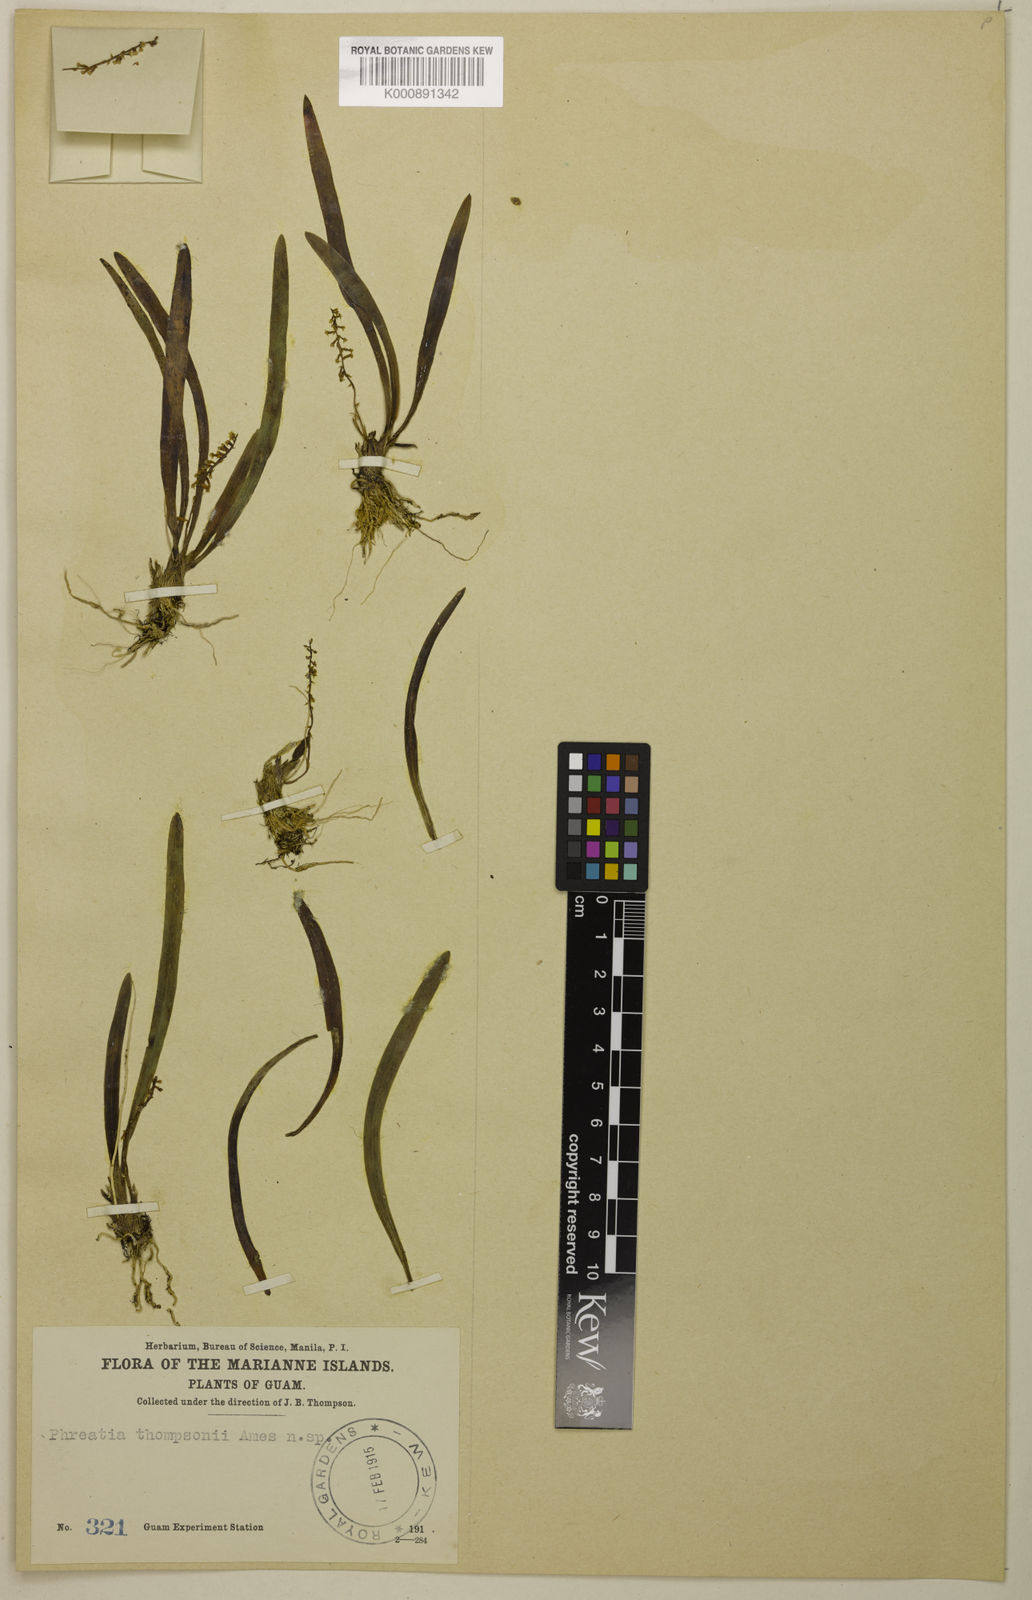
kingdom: Plantae
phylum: Tracheophyta
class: Liliopsida
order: Asparagales
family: Orchidaceae
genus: Phreatia
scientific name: Phreatia thompsonii
